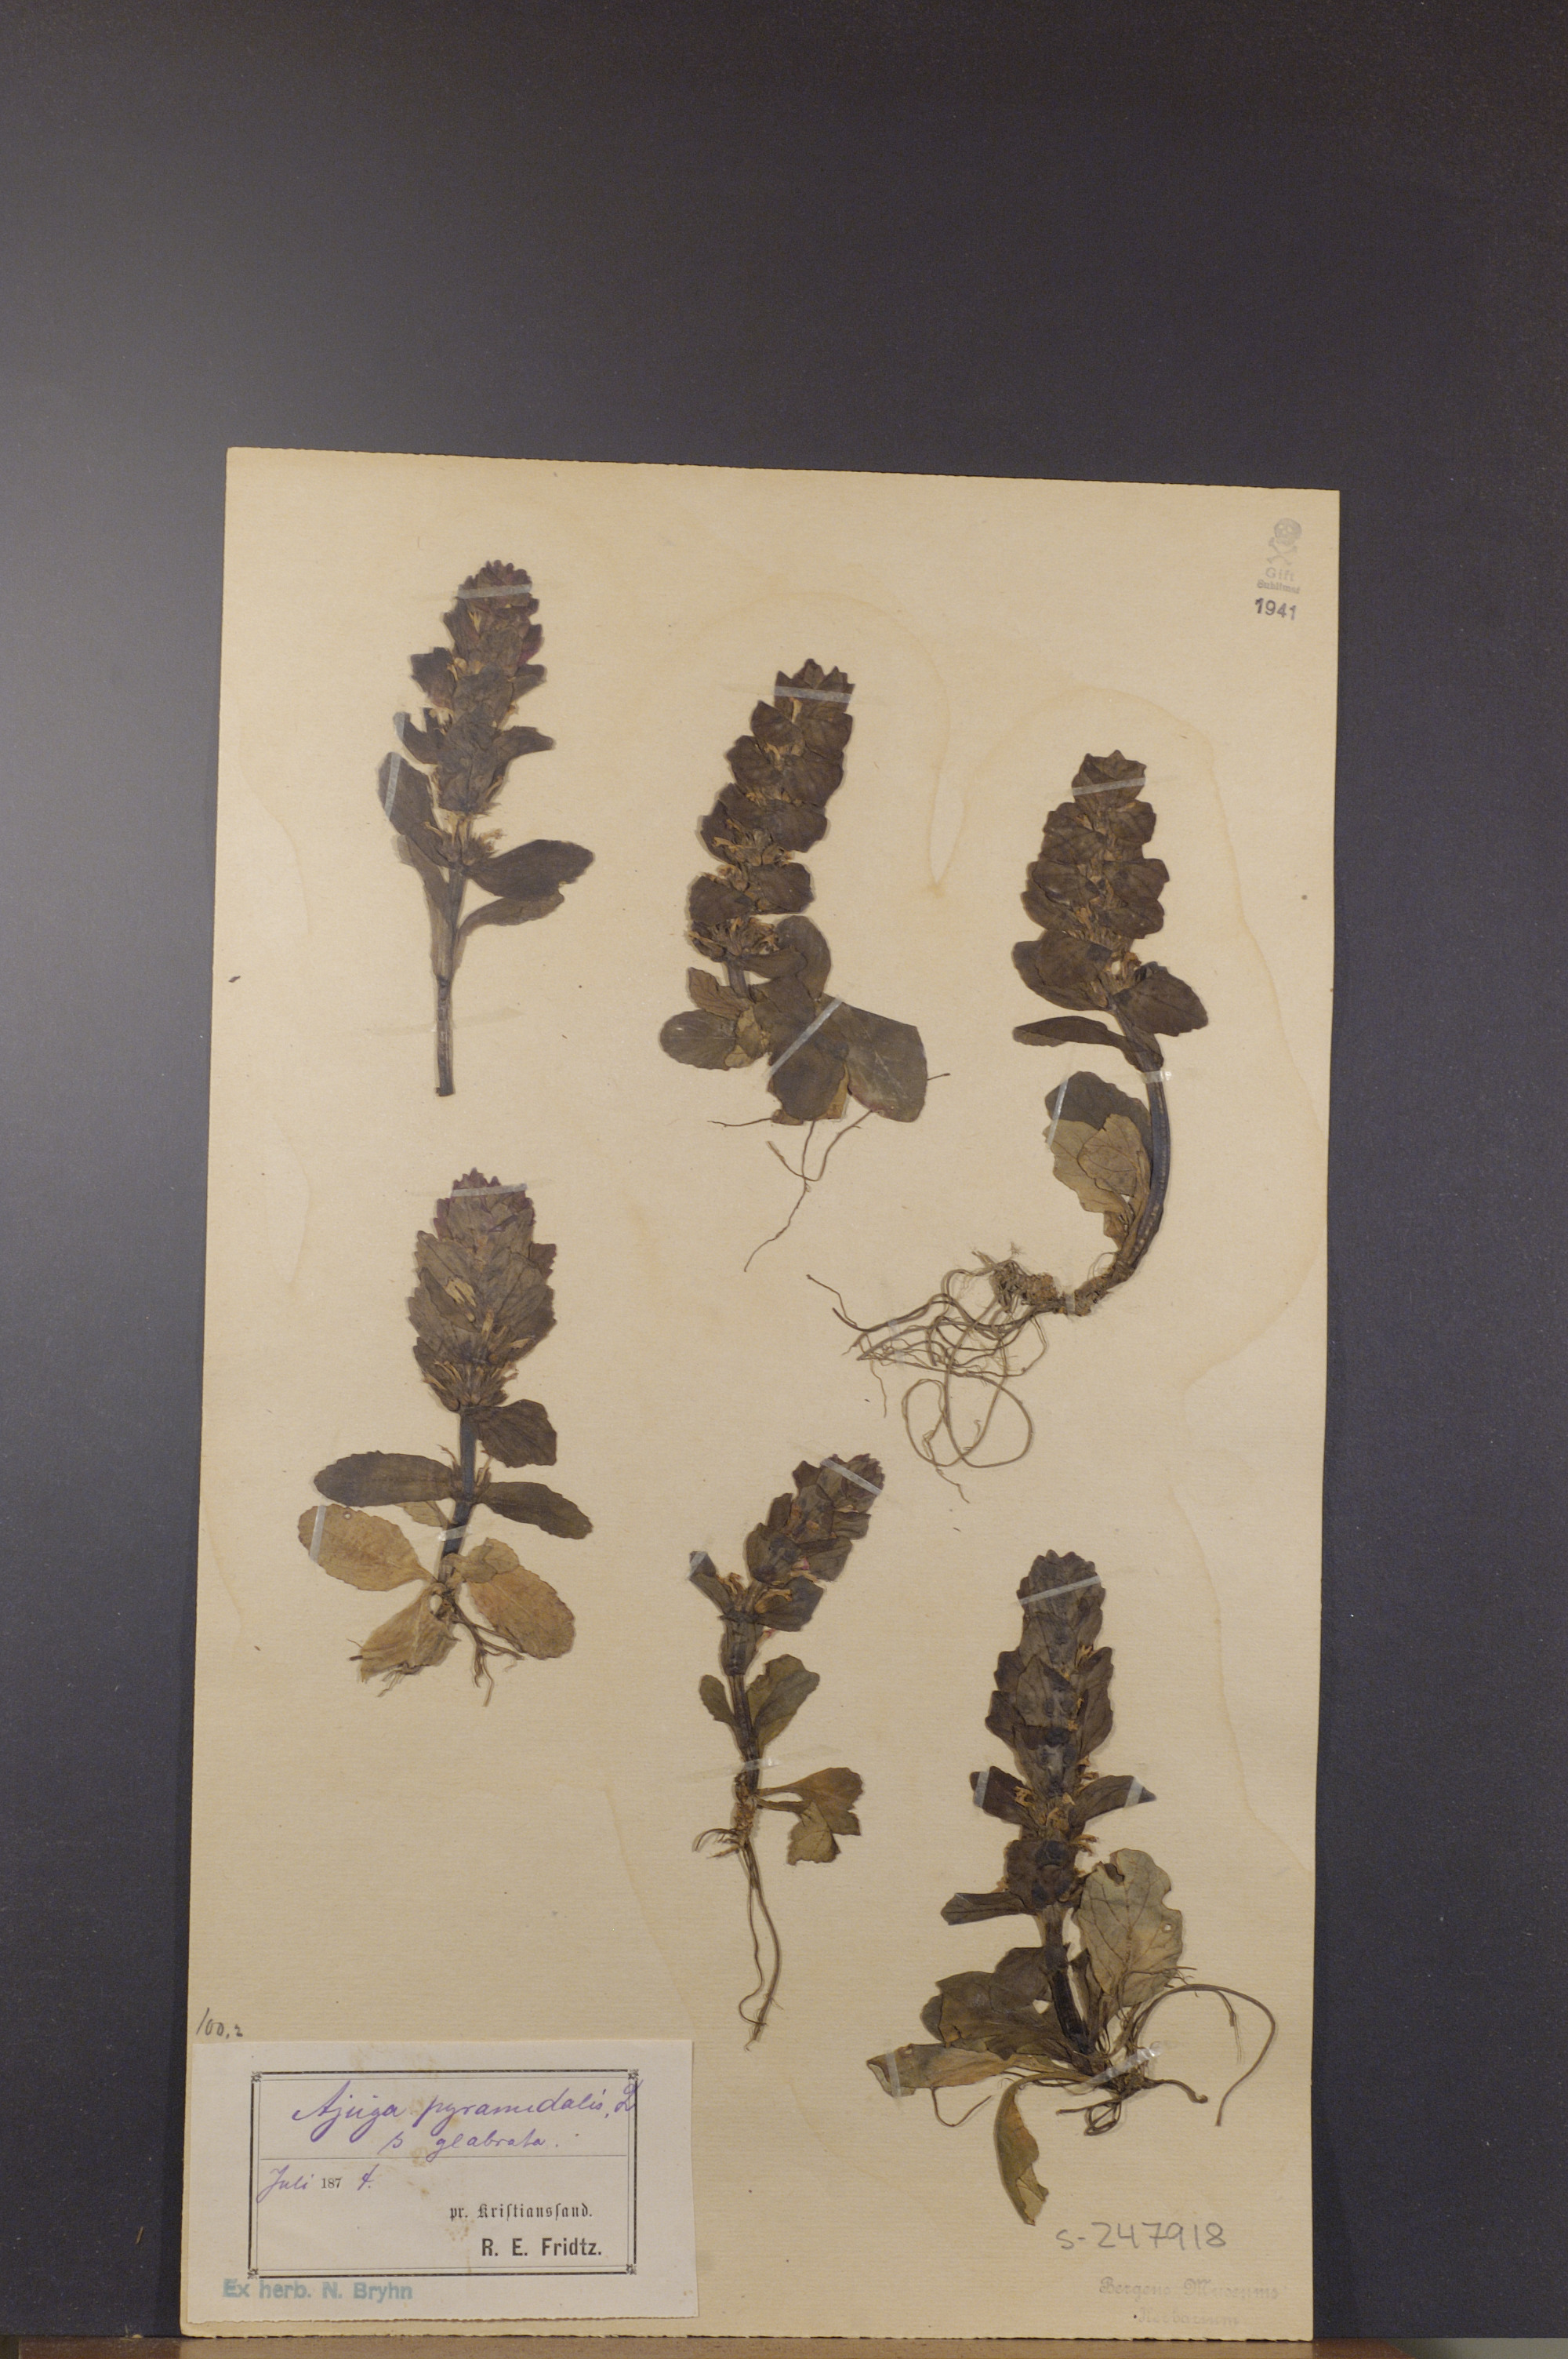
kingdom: Plantae
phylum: Tracheophyta
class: Magnoliopsida
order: Lamiales
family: Lamiaceae
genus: Ajuga
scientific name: Ajuga pyramidalis
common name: Pyramid bugle
